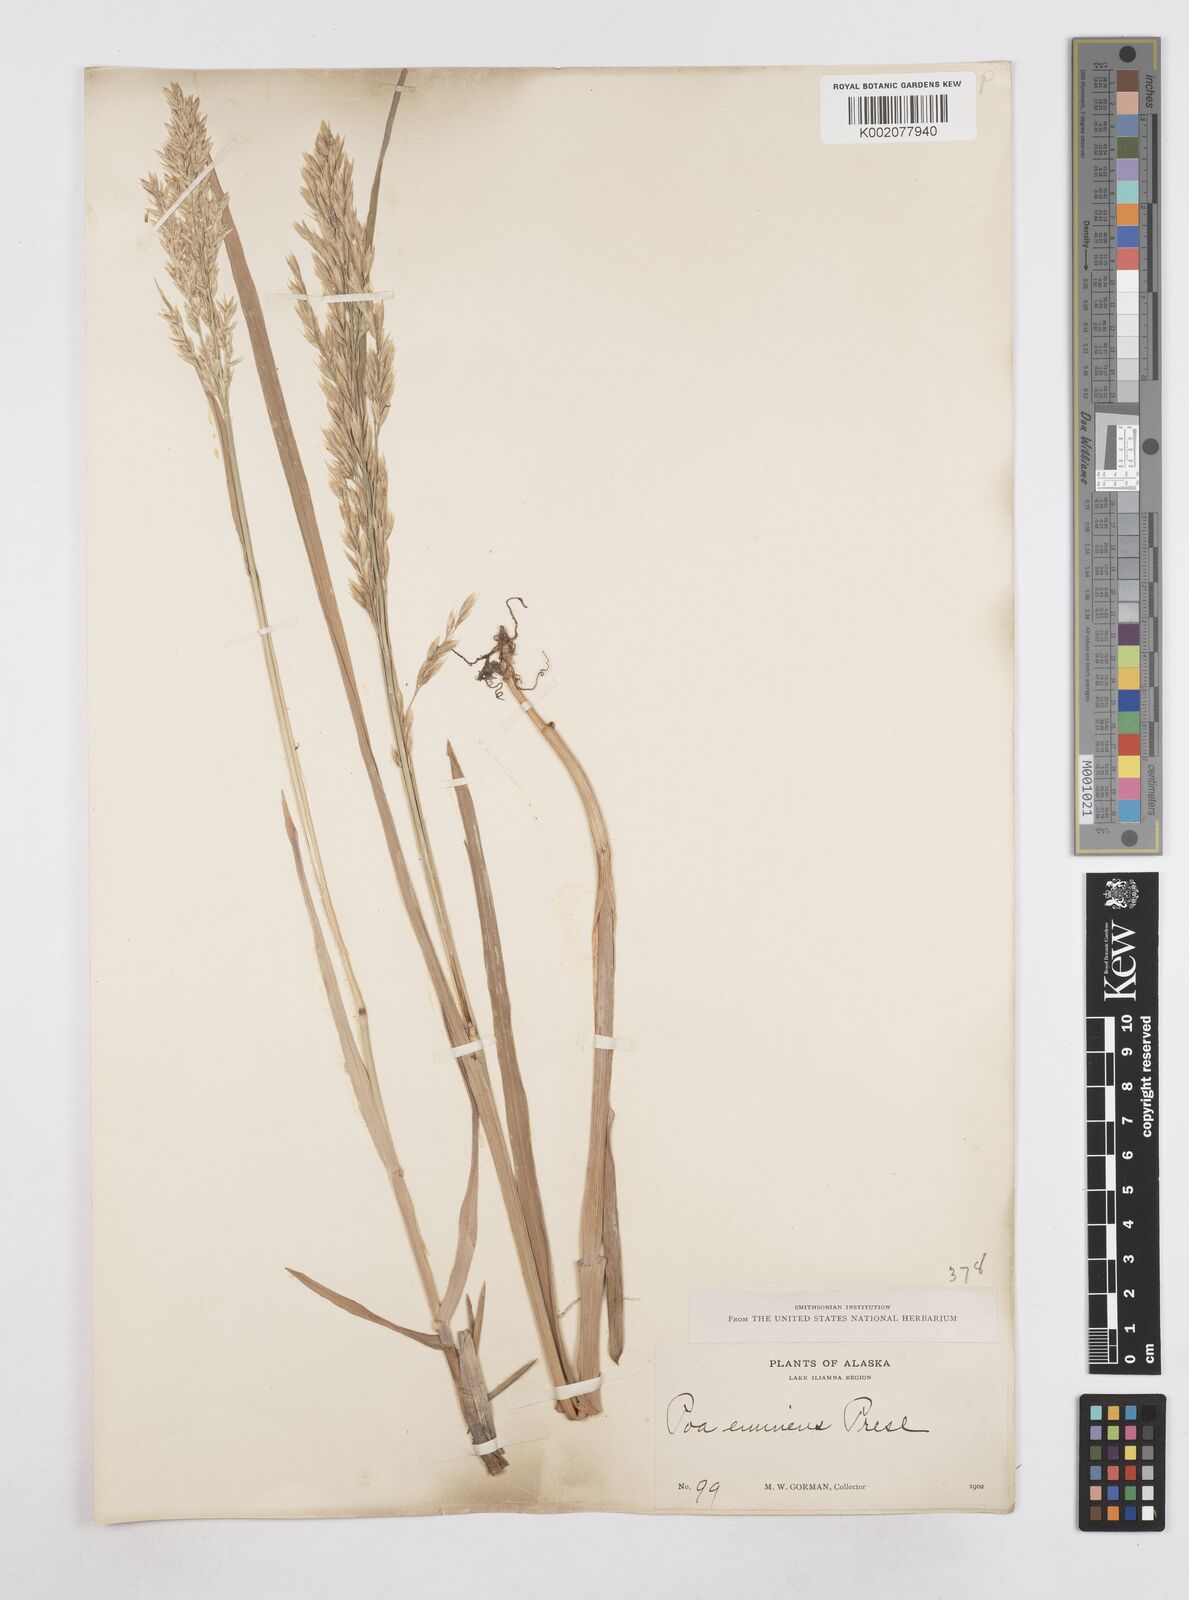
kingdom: Plantae
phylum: Tracheophyta
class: Liliopsida
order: Poales
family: Poaceae
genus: Arctopoa
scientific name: Arctopoa eminens
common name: Eminent bluegrass
